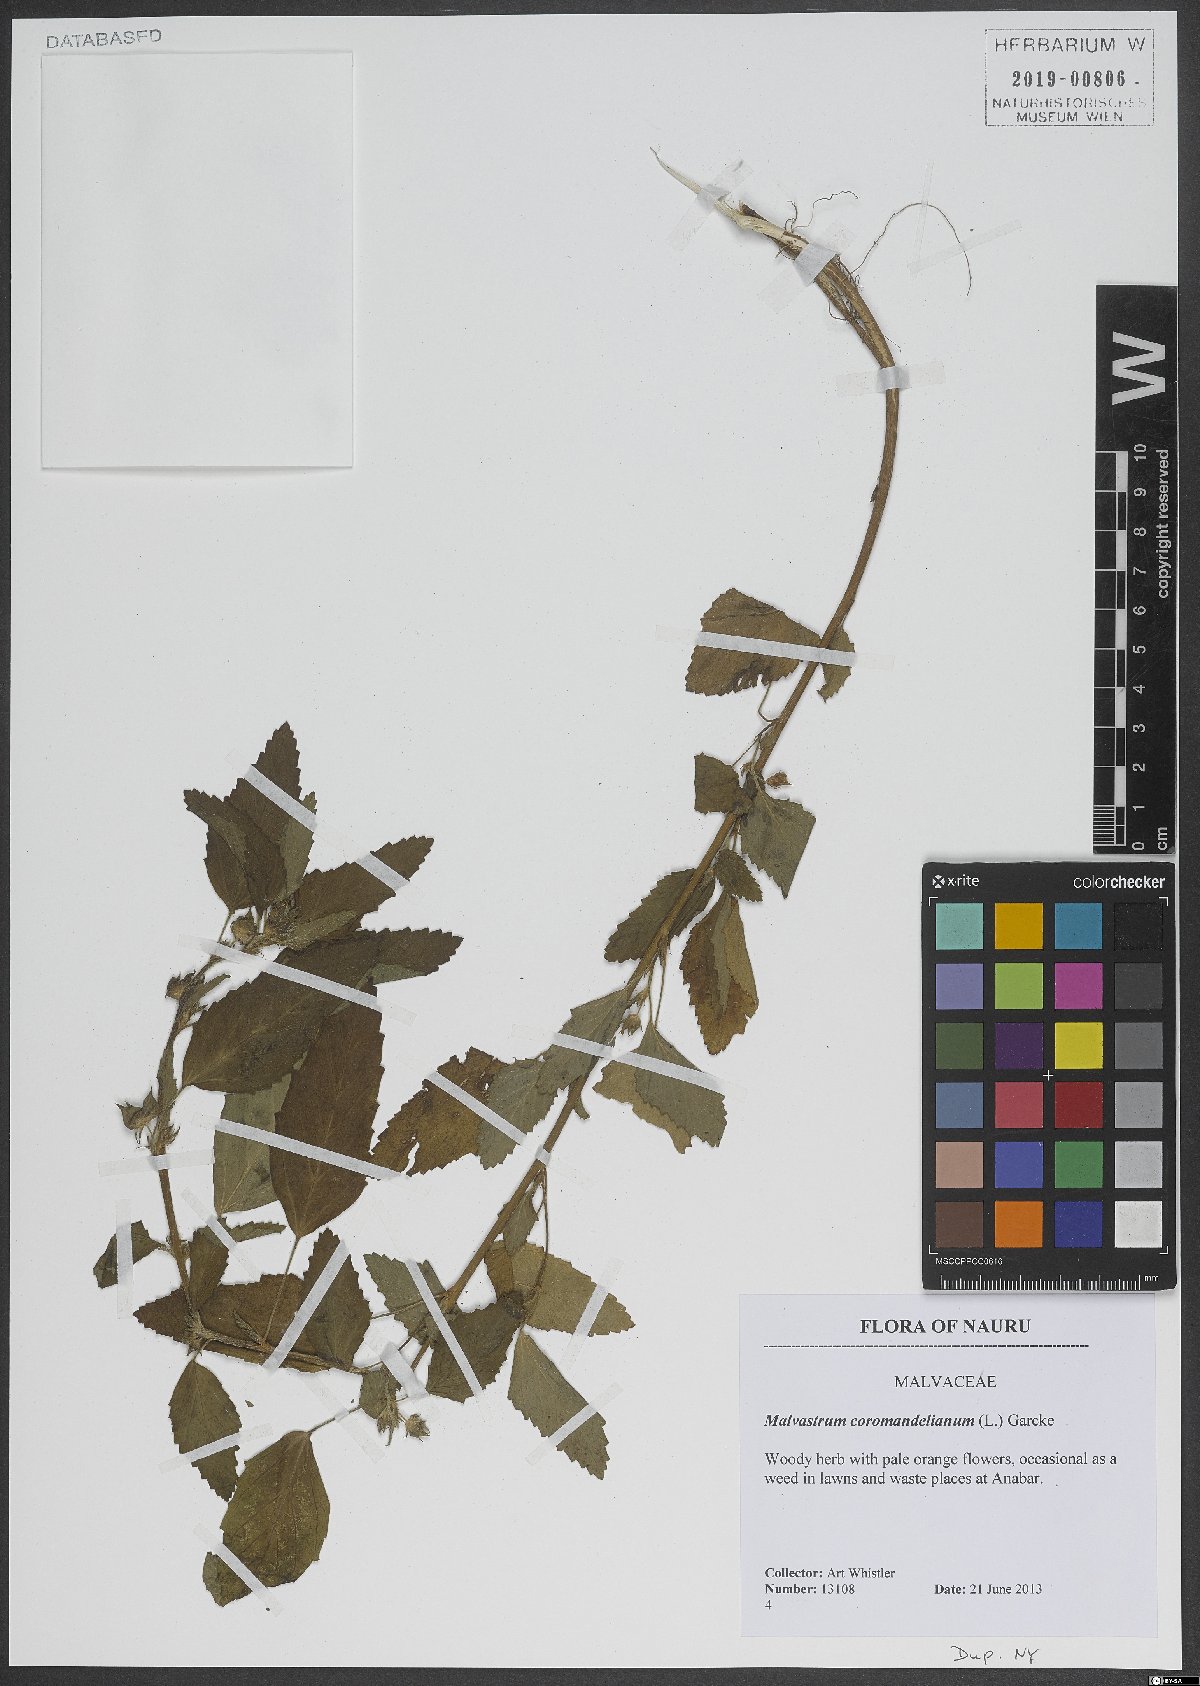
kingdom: Plantae
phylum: Tracheophyta
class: Magnoliopsida
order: Malvales
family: Malvaceae
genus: Malvastrum
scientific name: Malvastrum coromandelianum
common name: Threelobe false mallow
